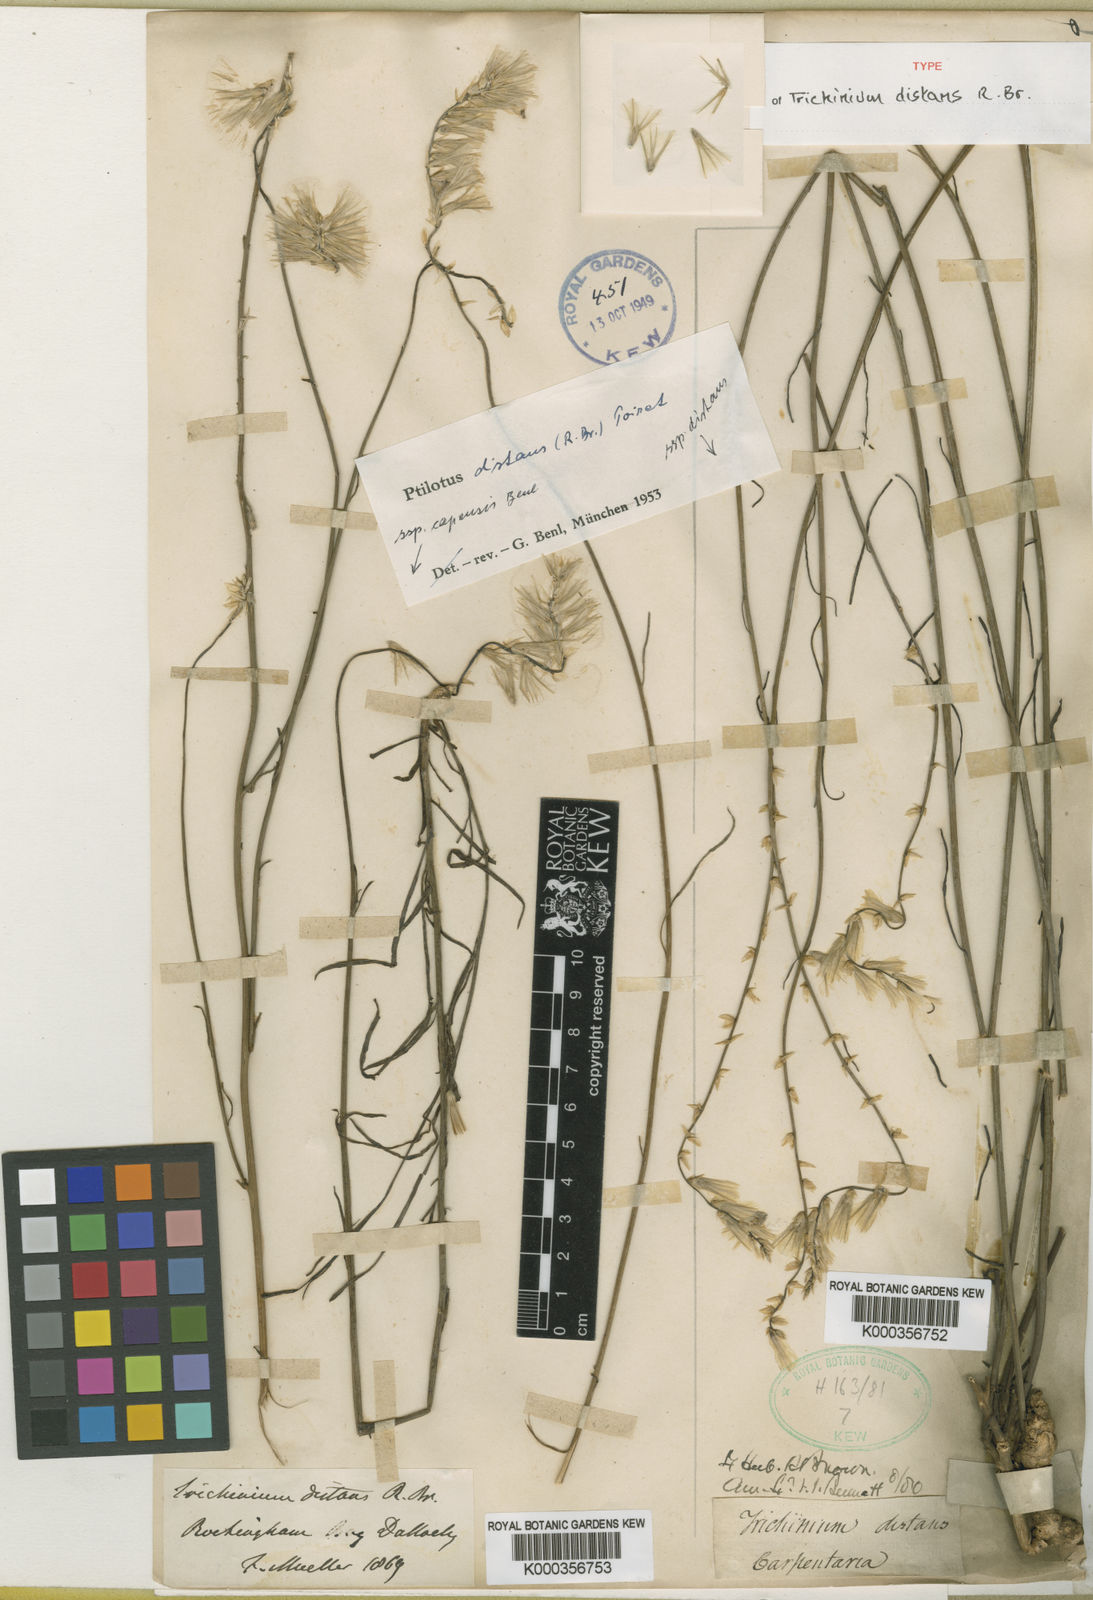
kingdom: Plantae
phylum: Tracheophyta
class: Magnoliopsida
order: Caryophyllales
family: Amaranthaceae
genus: Ptilotus
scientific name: Ptilotus distans
